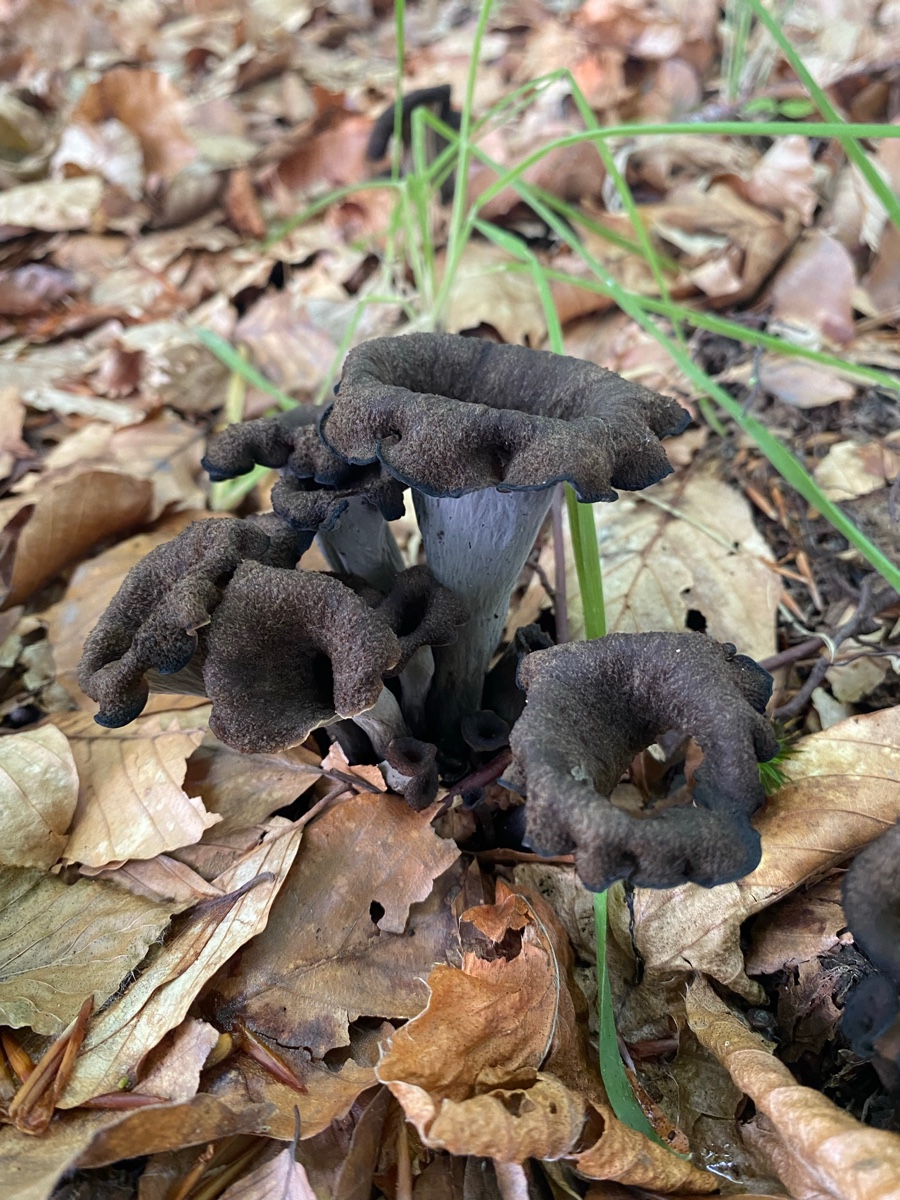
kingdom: Fungi
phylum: Basidiomycota
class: Agaricomycetes
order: Cantharellales
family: Hydnaceae
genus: Craterellus
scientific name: Craterellus cornucopioides
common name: trompetsvamp
